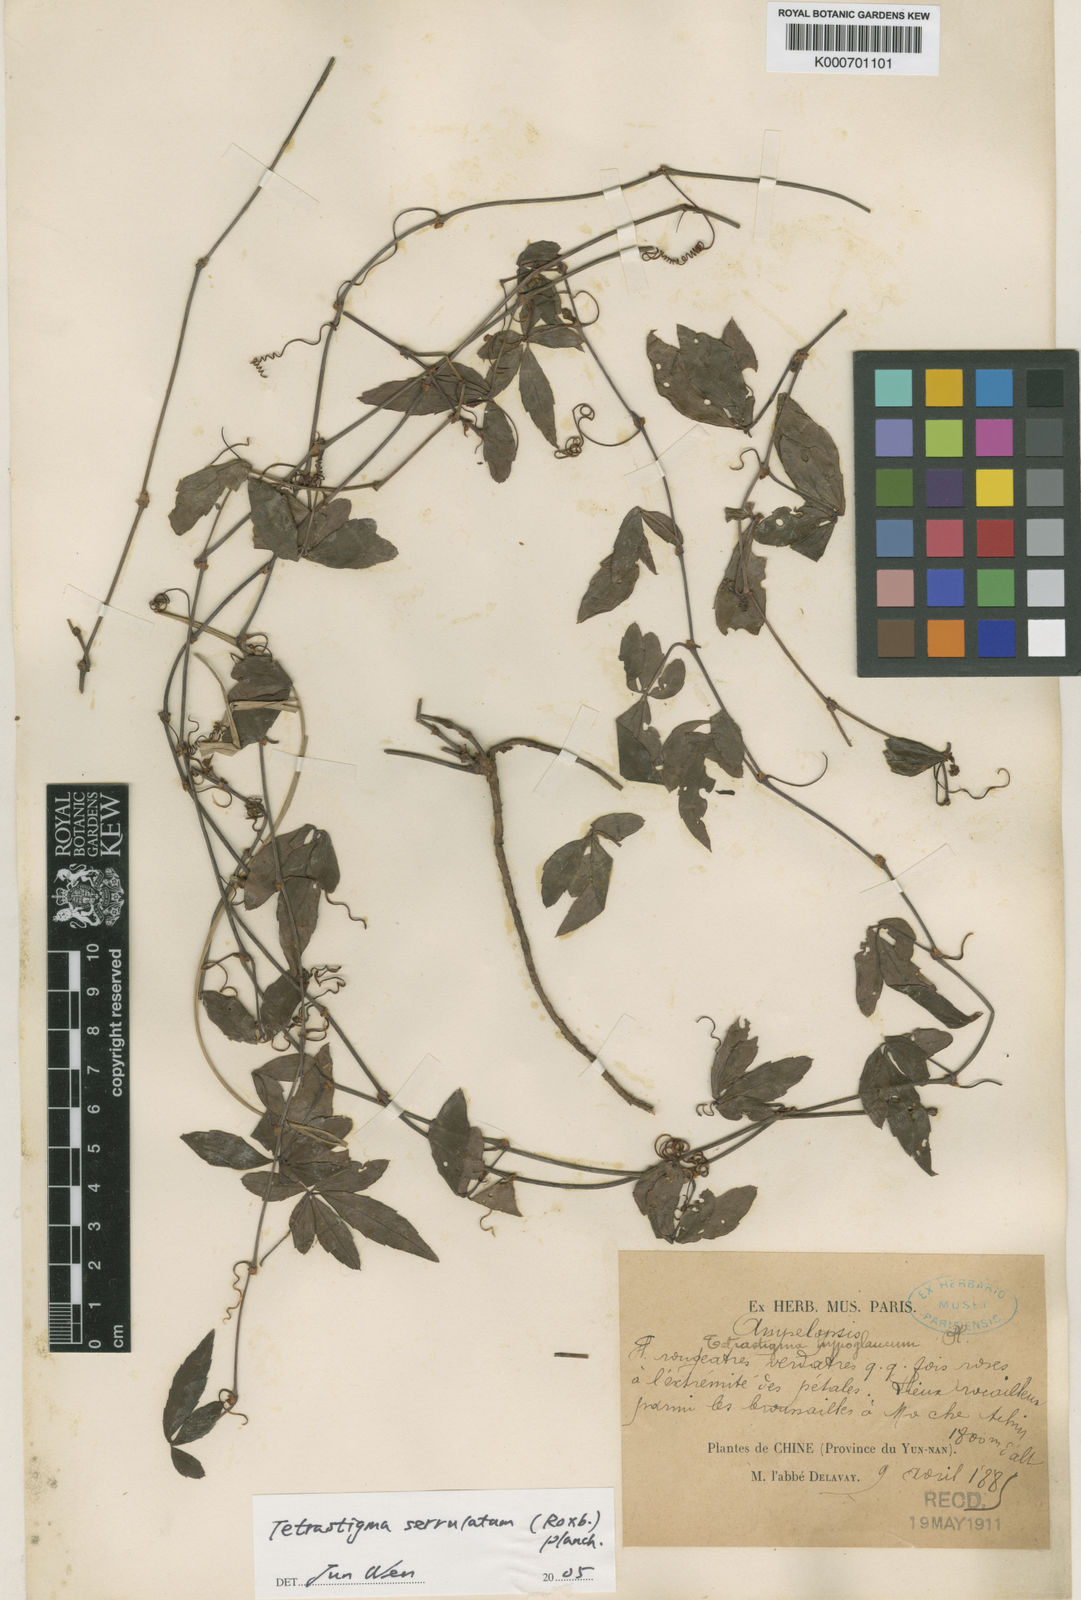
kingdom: Plantae
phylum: Tracheophyta
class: Magnoliopsida
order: Vitales
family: Vitaceae
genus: Tetrastigma
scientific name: Tetrastigma hypoglaucum
